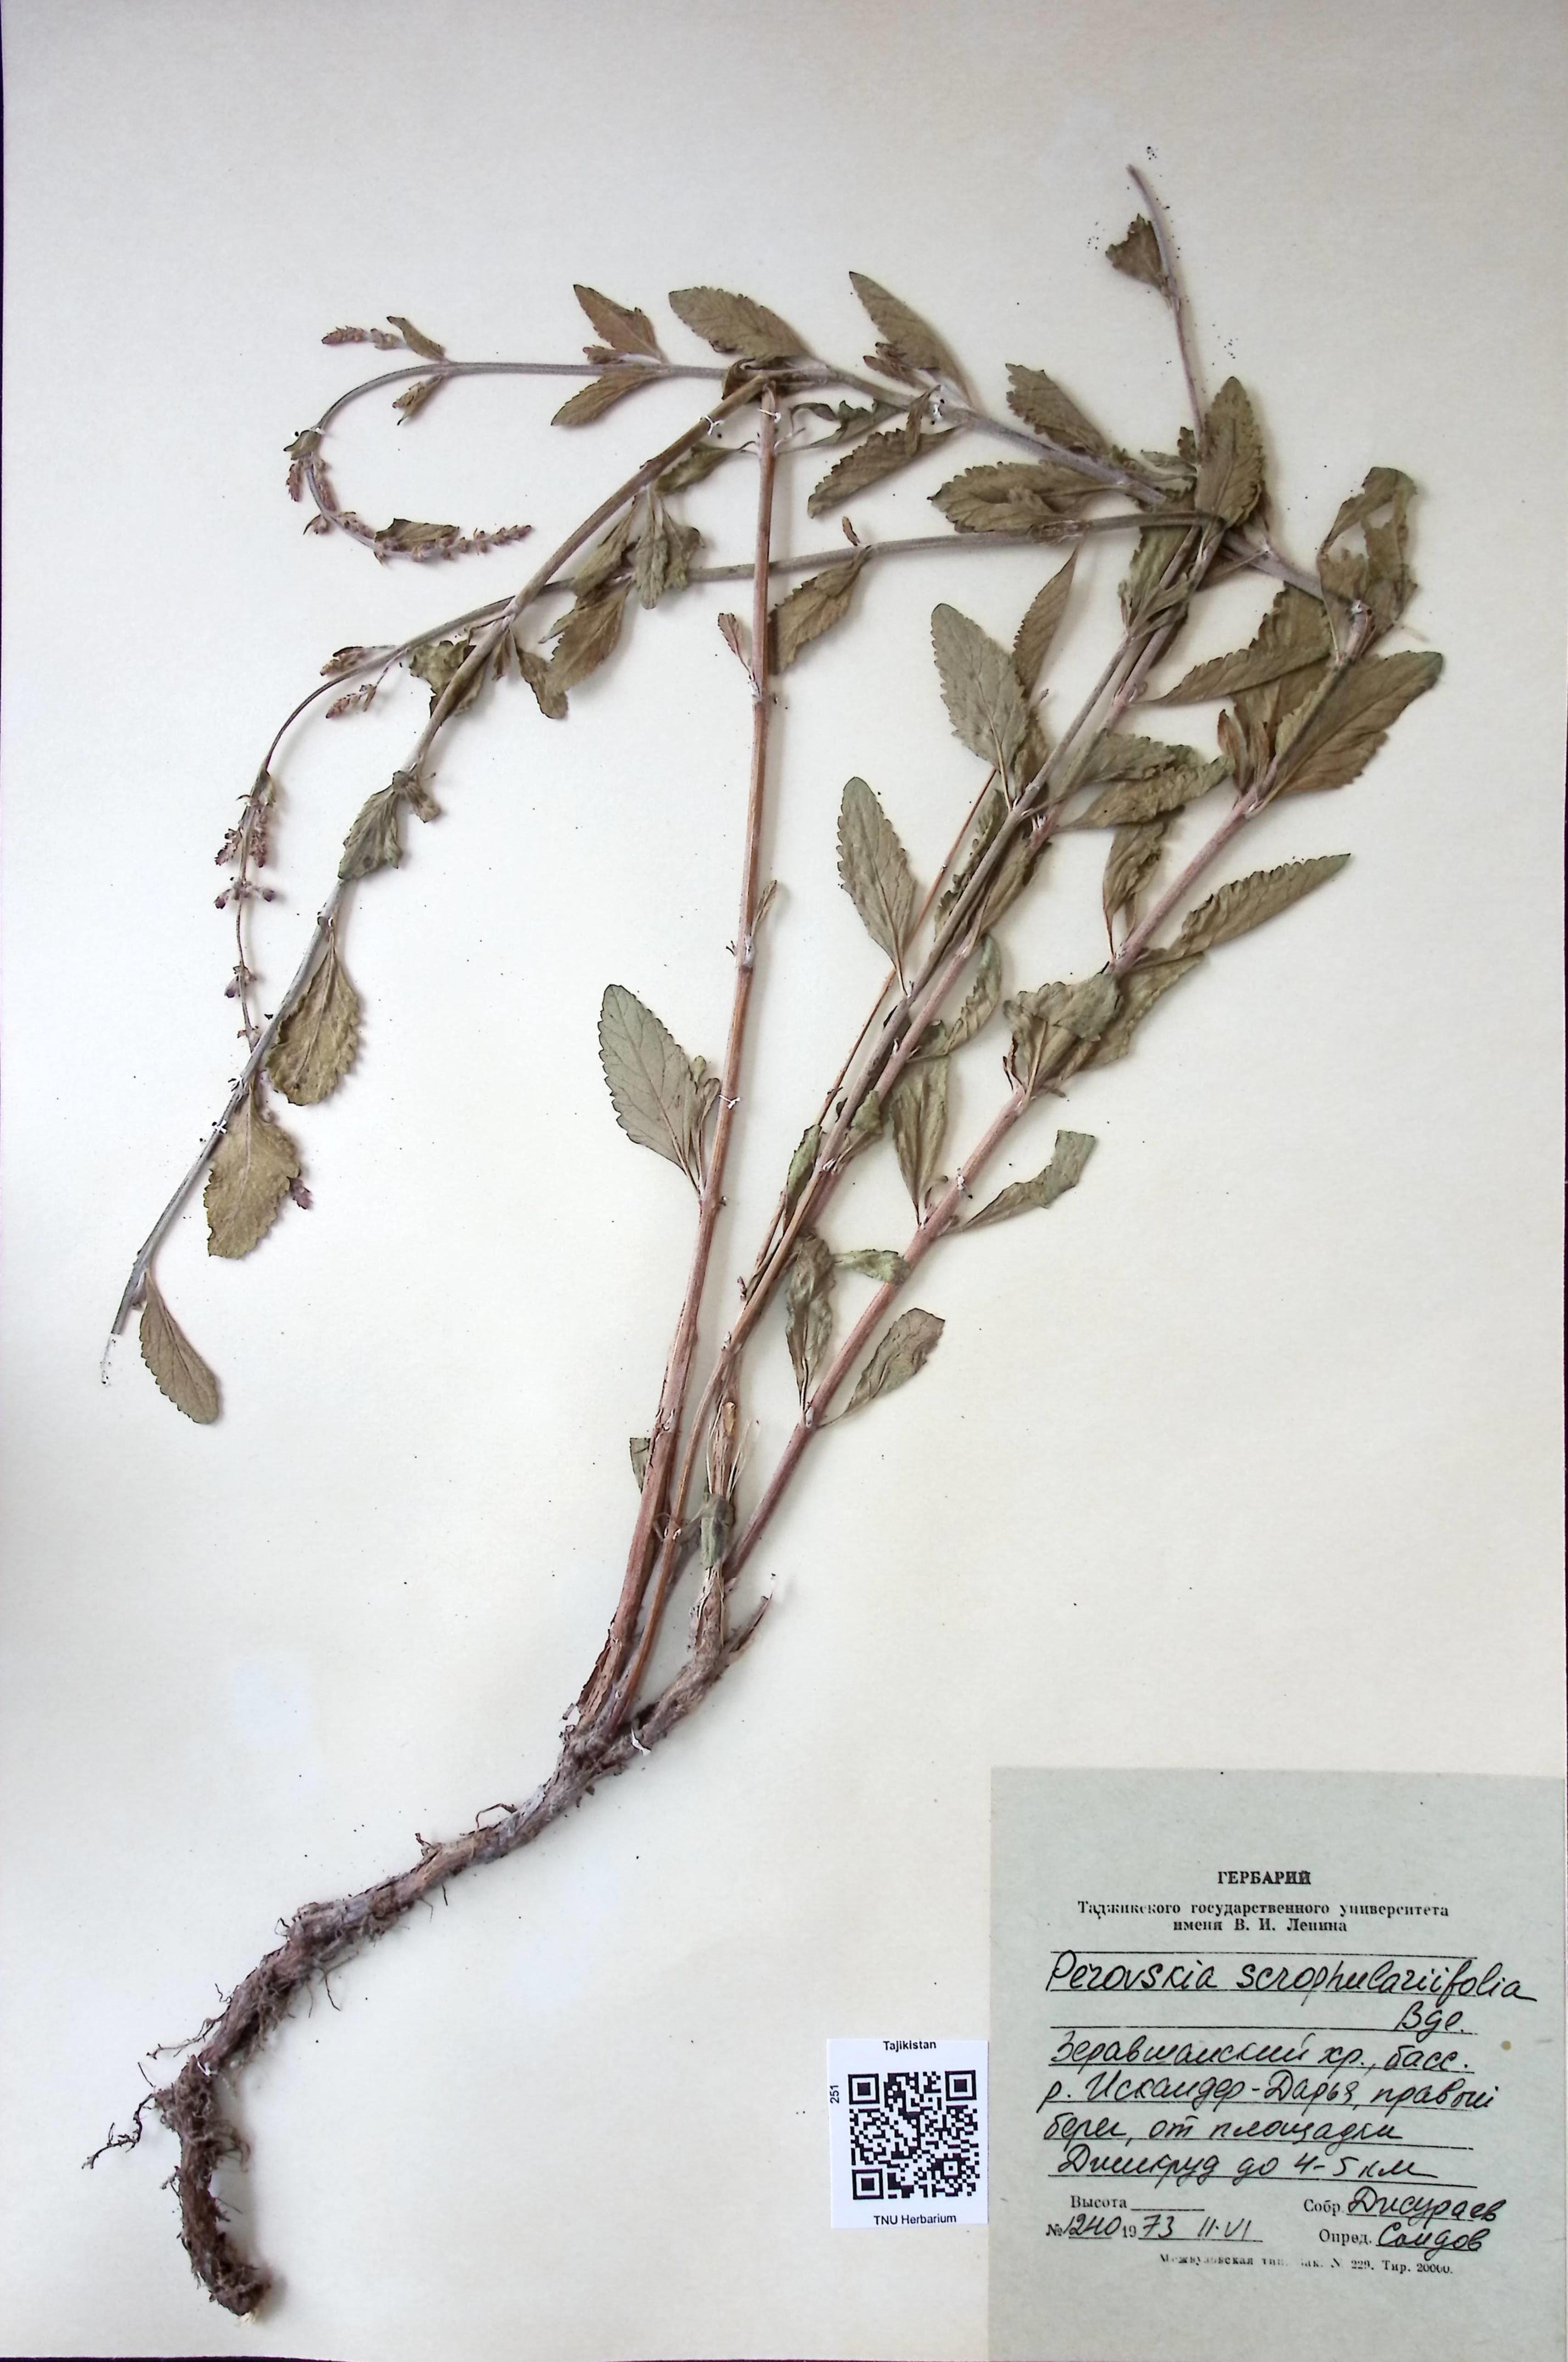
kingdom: Plantae
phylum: Tracheophyta
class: Magnoliopsida
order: Lamiales
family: Lamiaceae
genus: Salvia
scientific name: Salvia scrophulariifolia
